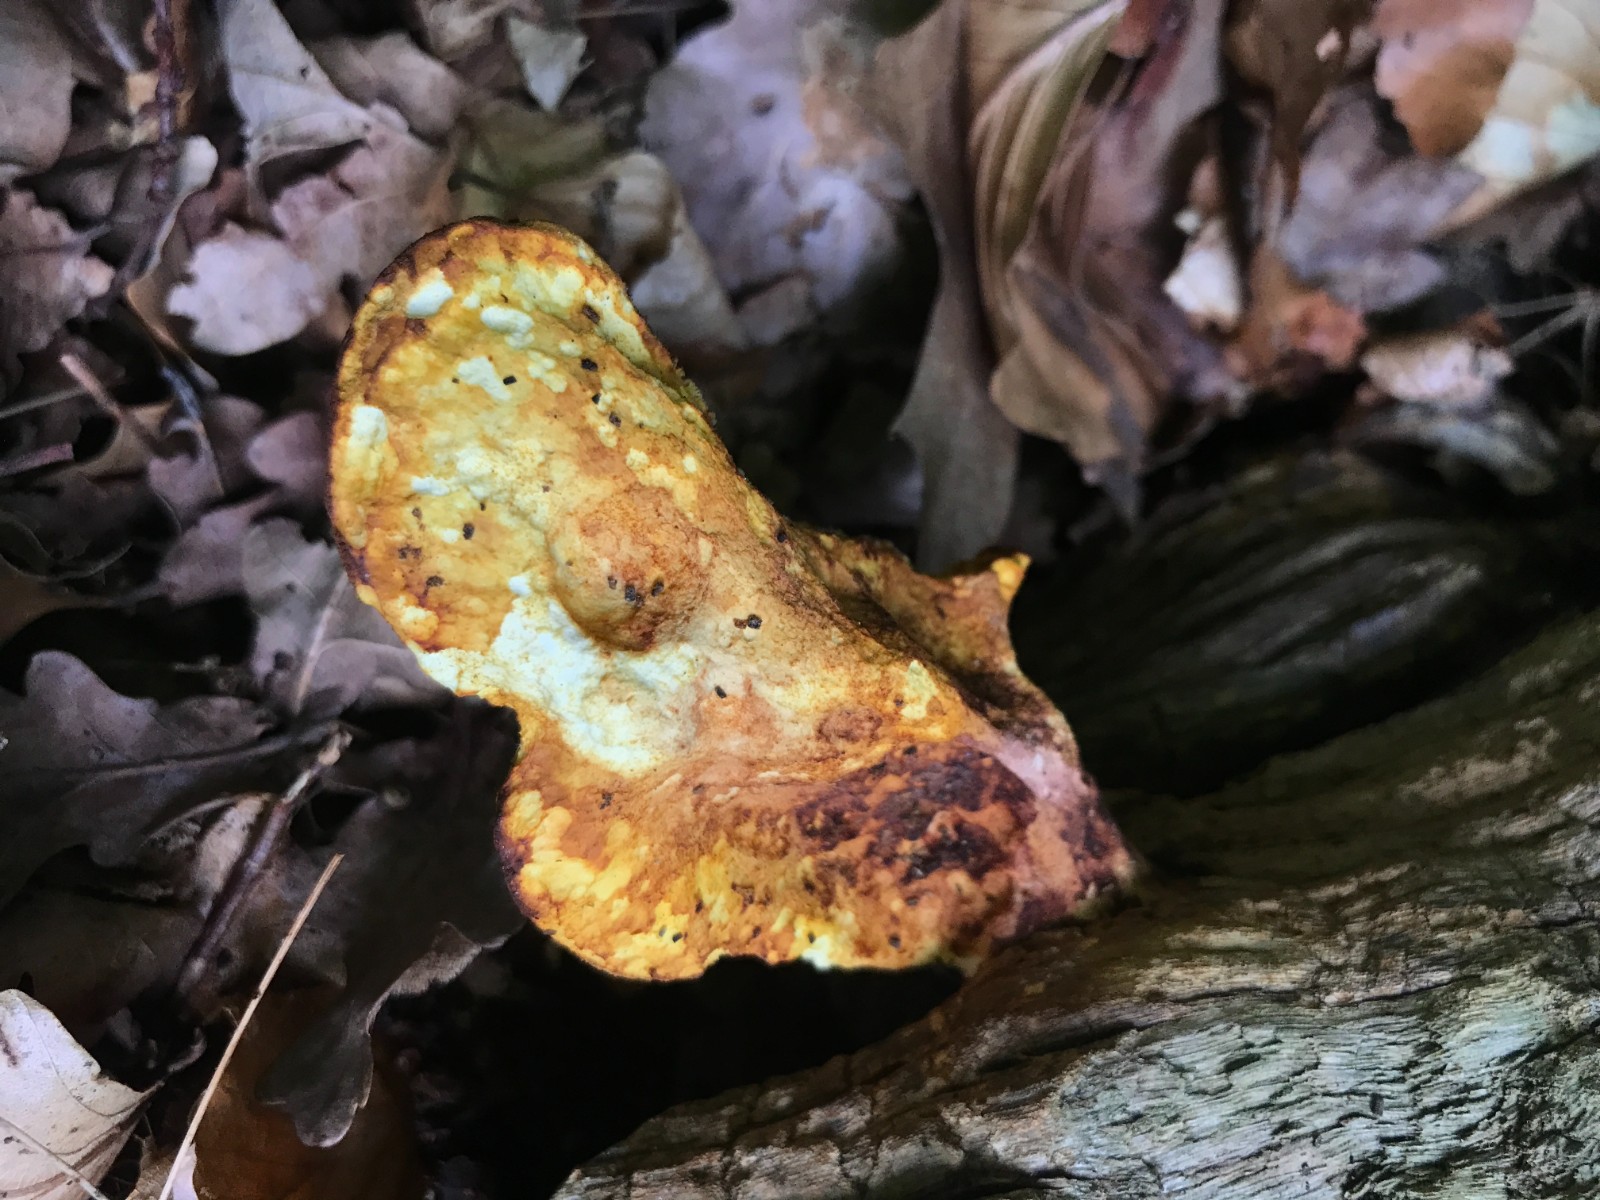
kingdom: Fungi
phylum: Basidiomycota
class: Agaricomycetes
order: Polyporales
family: Fomitopsidaceae
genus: Buglossoporus
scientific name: Buglossoporus quercinus
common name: egetunge
